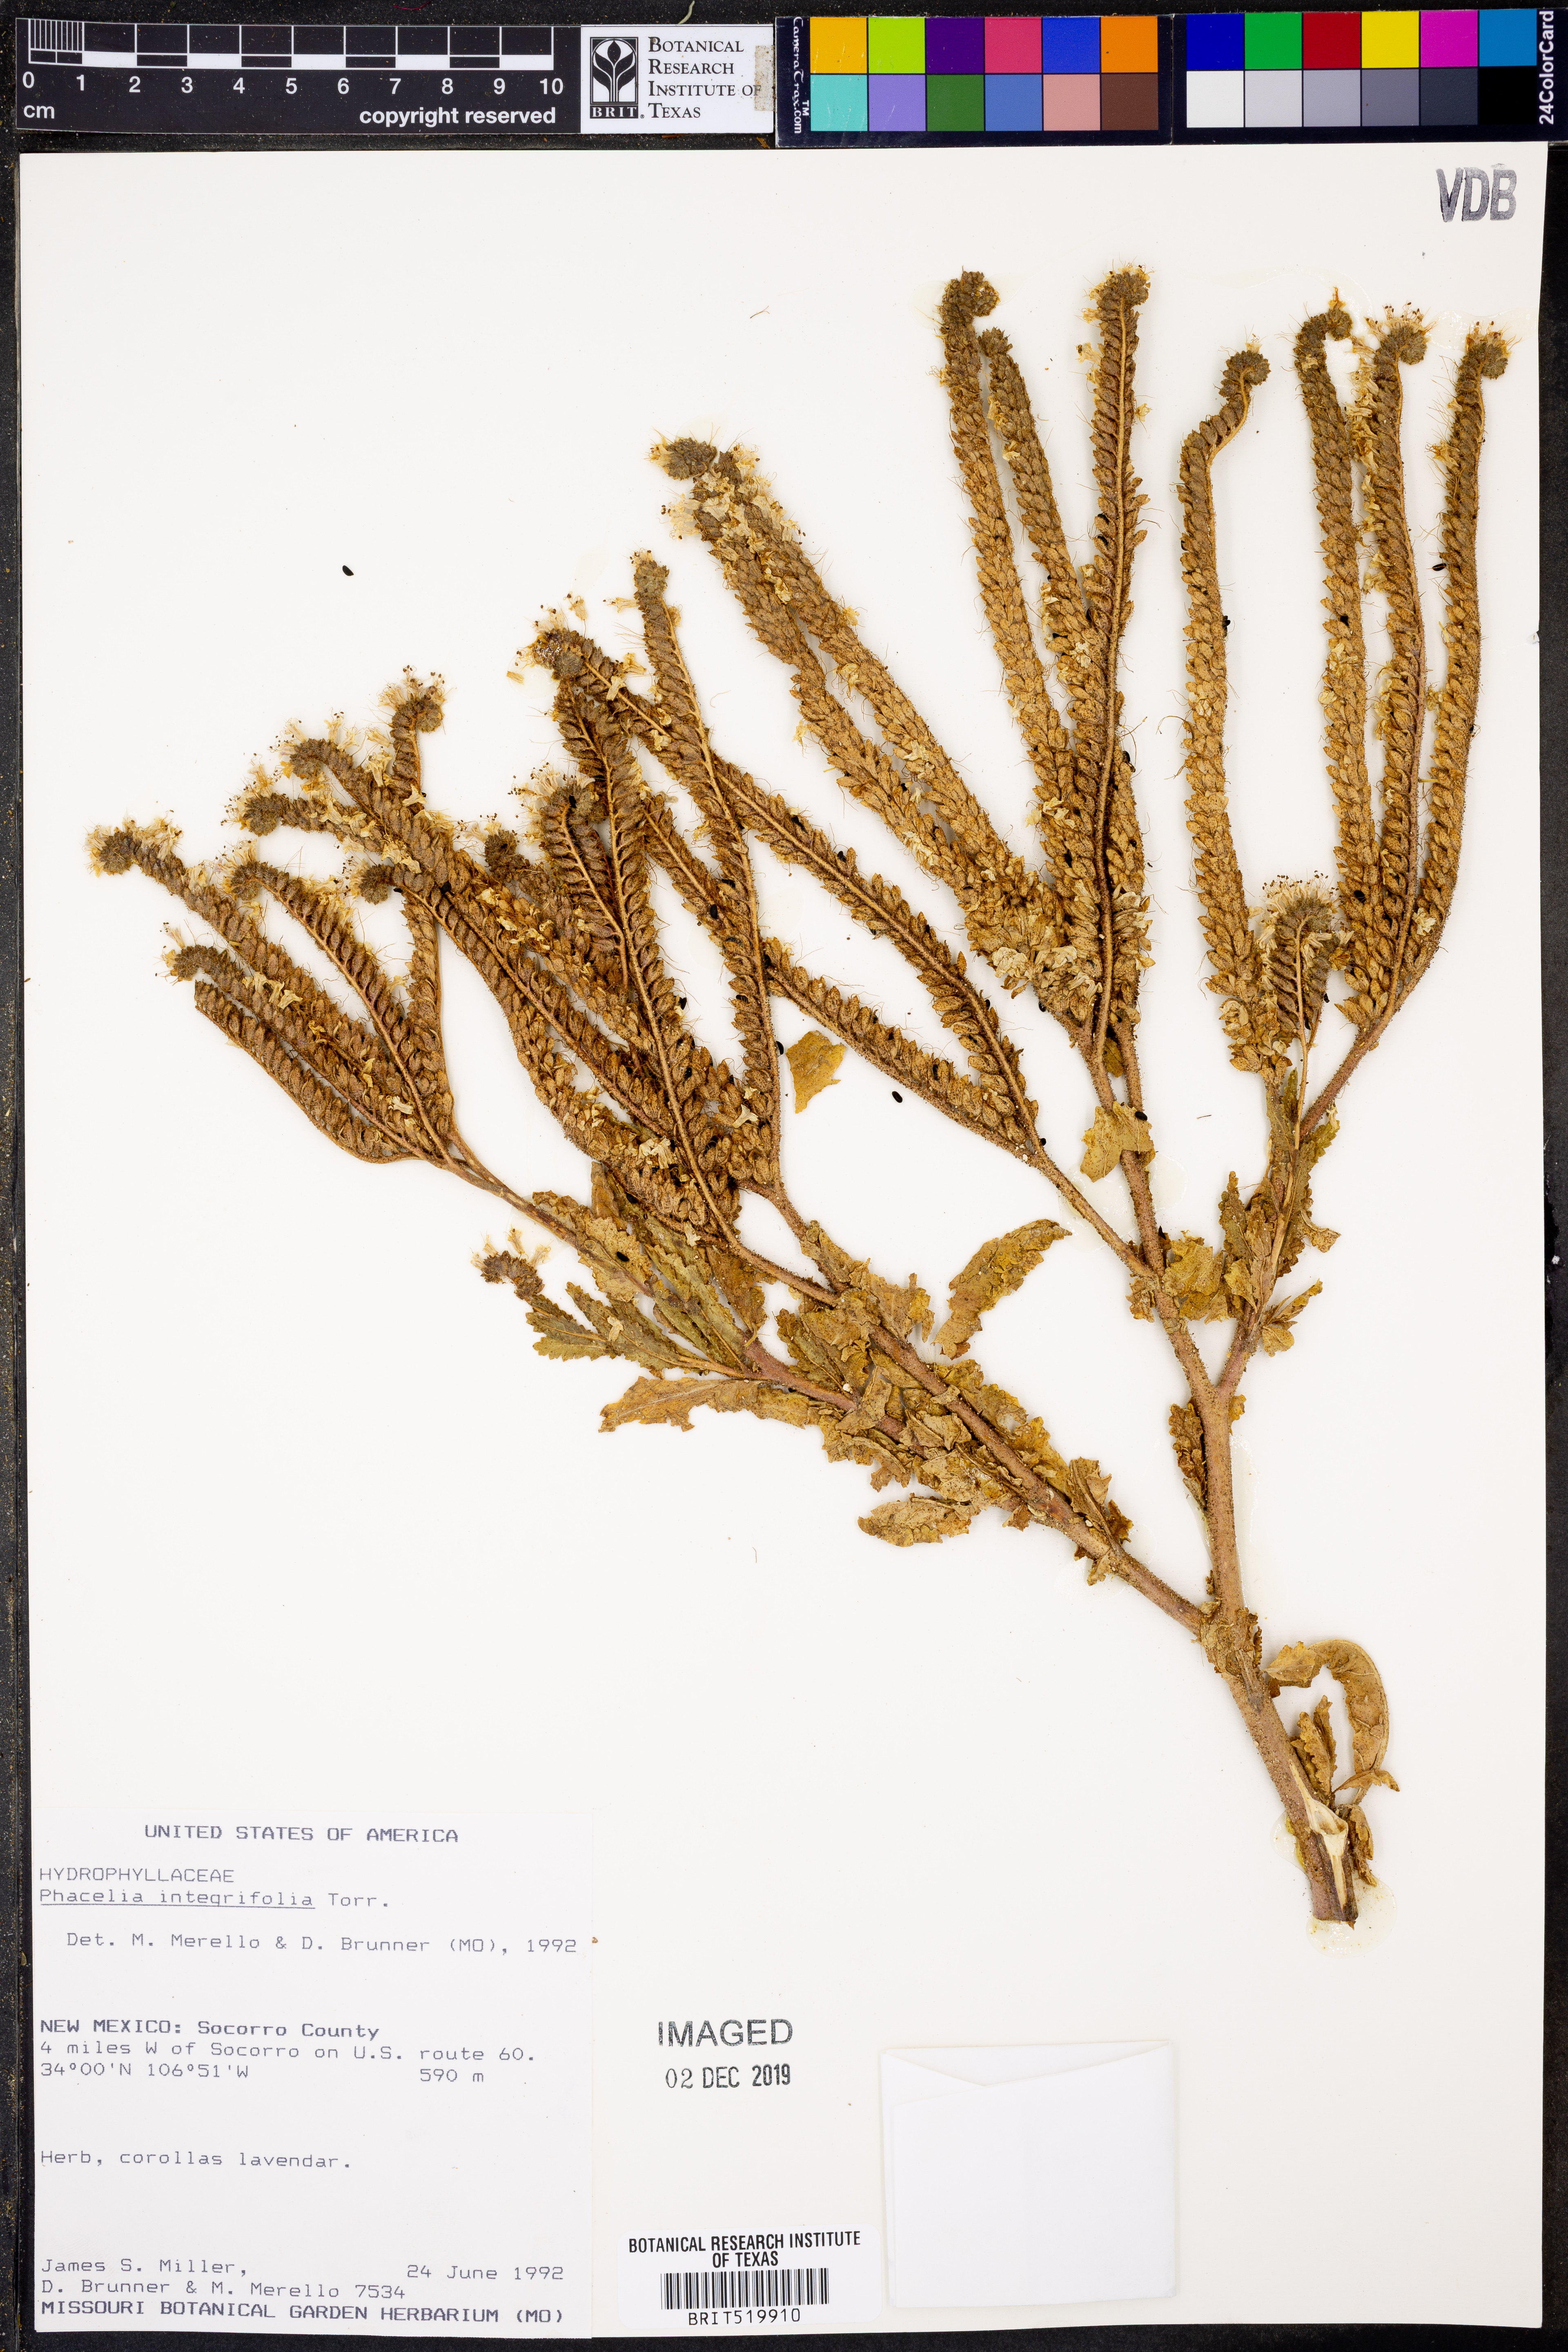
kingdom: Plantae
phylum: Tracheophyta
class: Magnoliopsida
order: Boraginales
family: Hydrophyllaceae
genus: Phacelia
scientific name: Phacelia integrifolia
